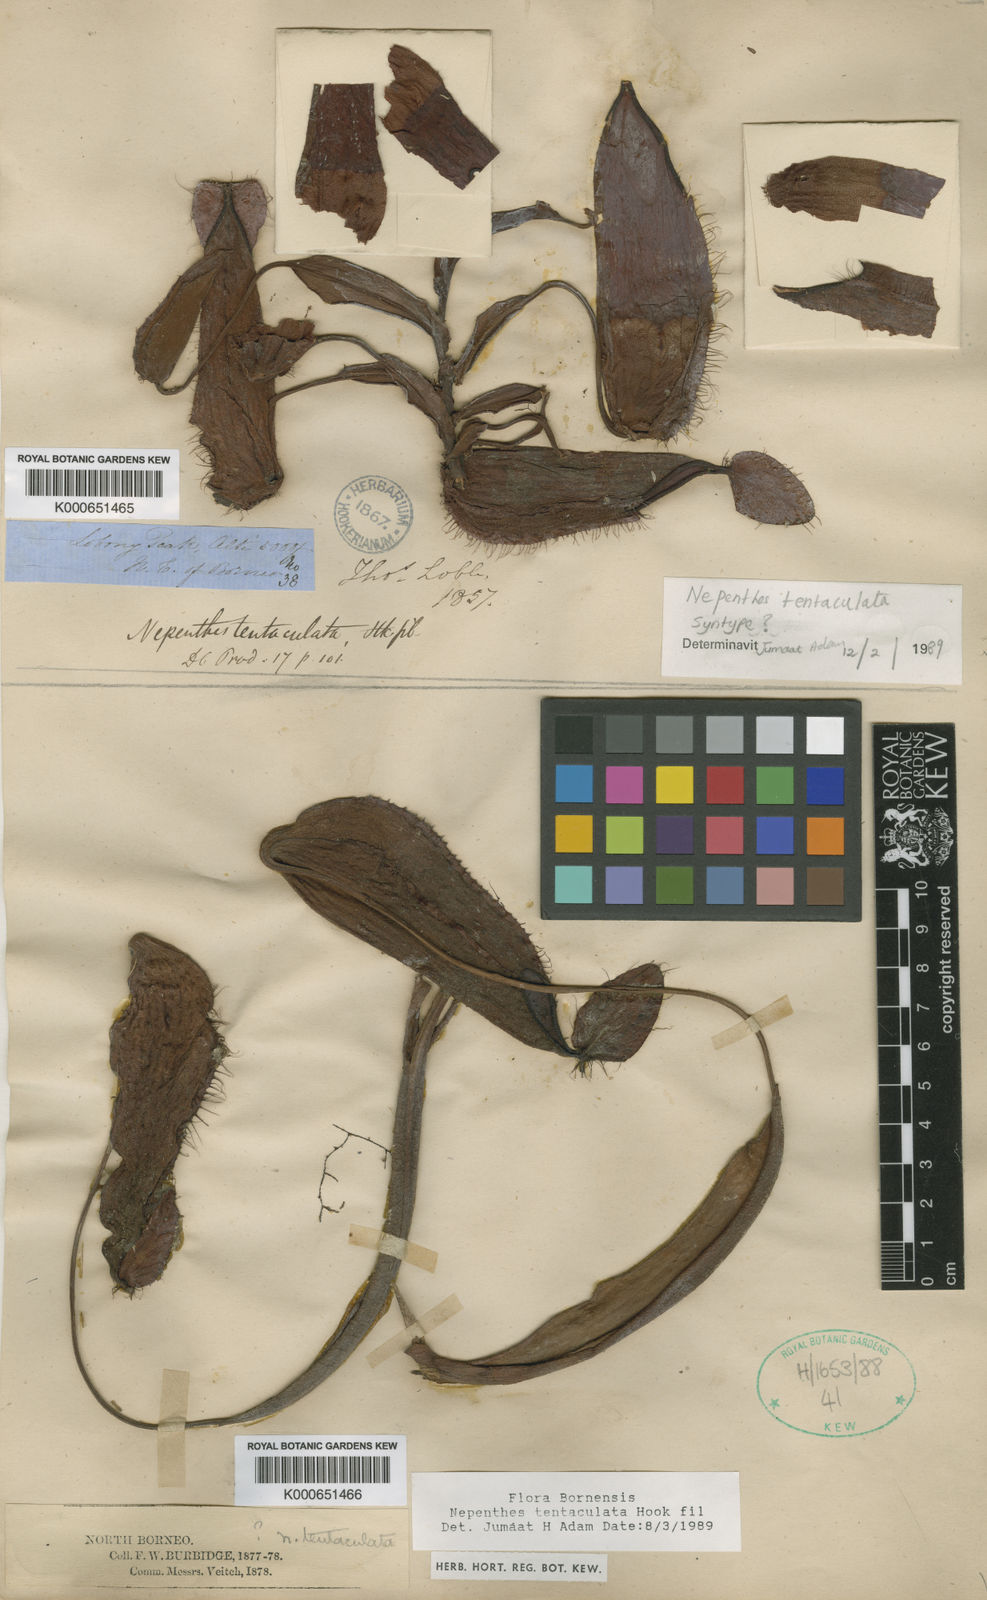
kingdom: Plantae
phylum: Tracheophyta
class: Magnoliopsida
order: Caryophyllales
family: Nepenthaceae
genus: Nepenthes
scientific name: Nepenthes tentaculata
